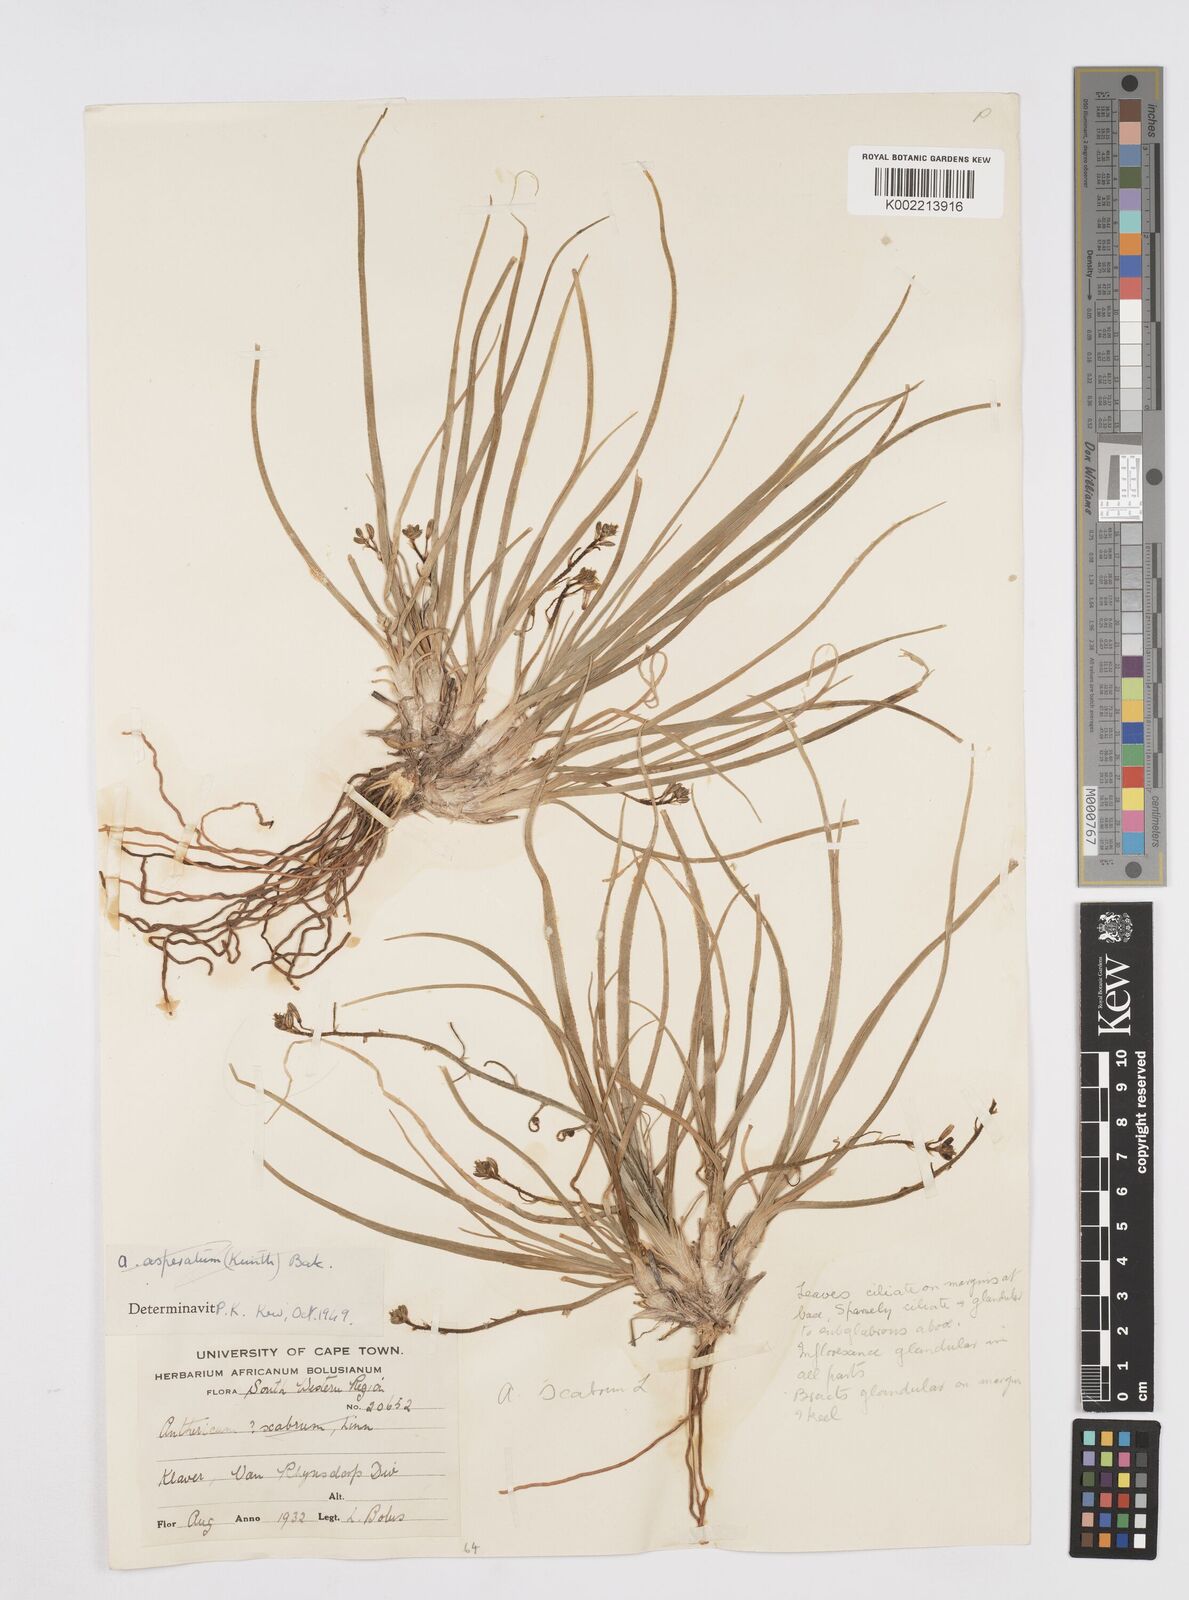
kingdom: Plantae
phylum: Tracheophyta
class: Liliopsida
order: Asparagales
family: Asphodelaceae
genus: Trachyandra
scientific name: Trachyandra scabra
